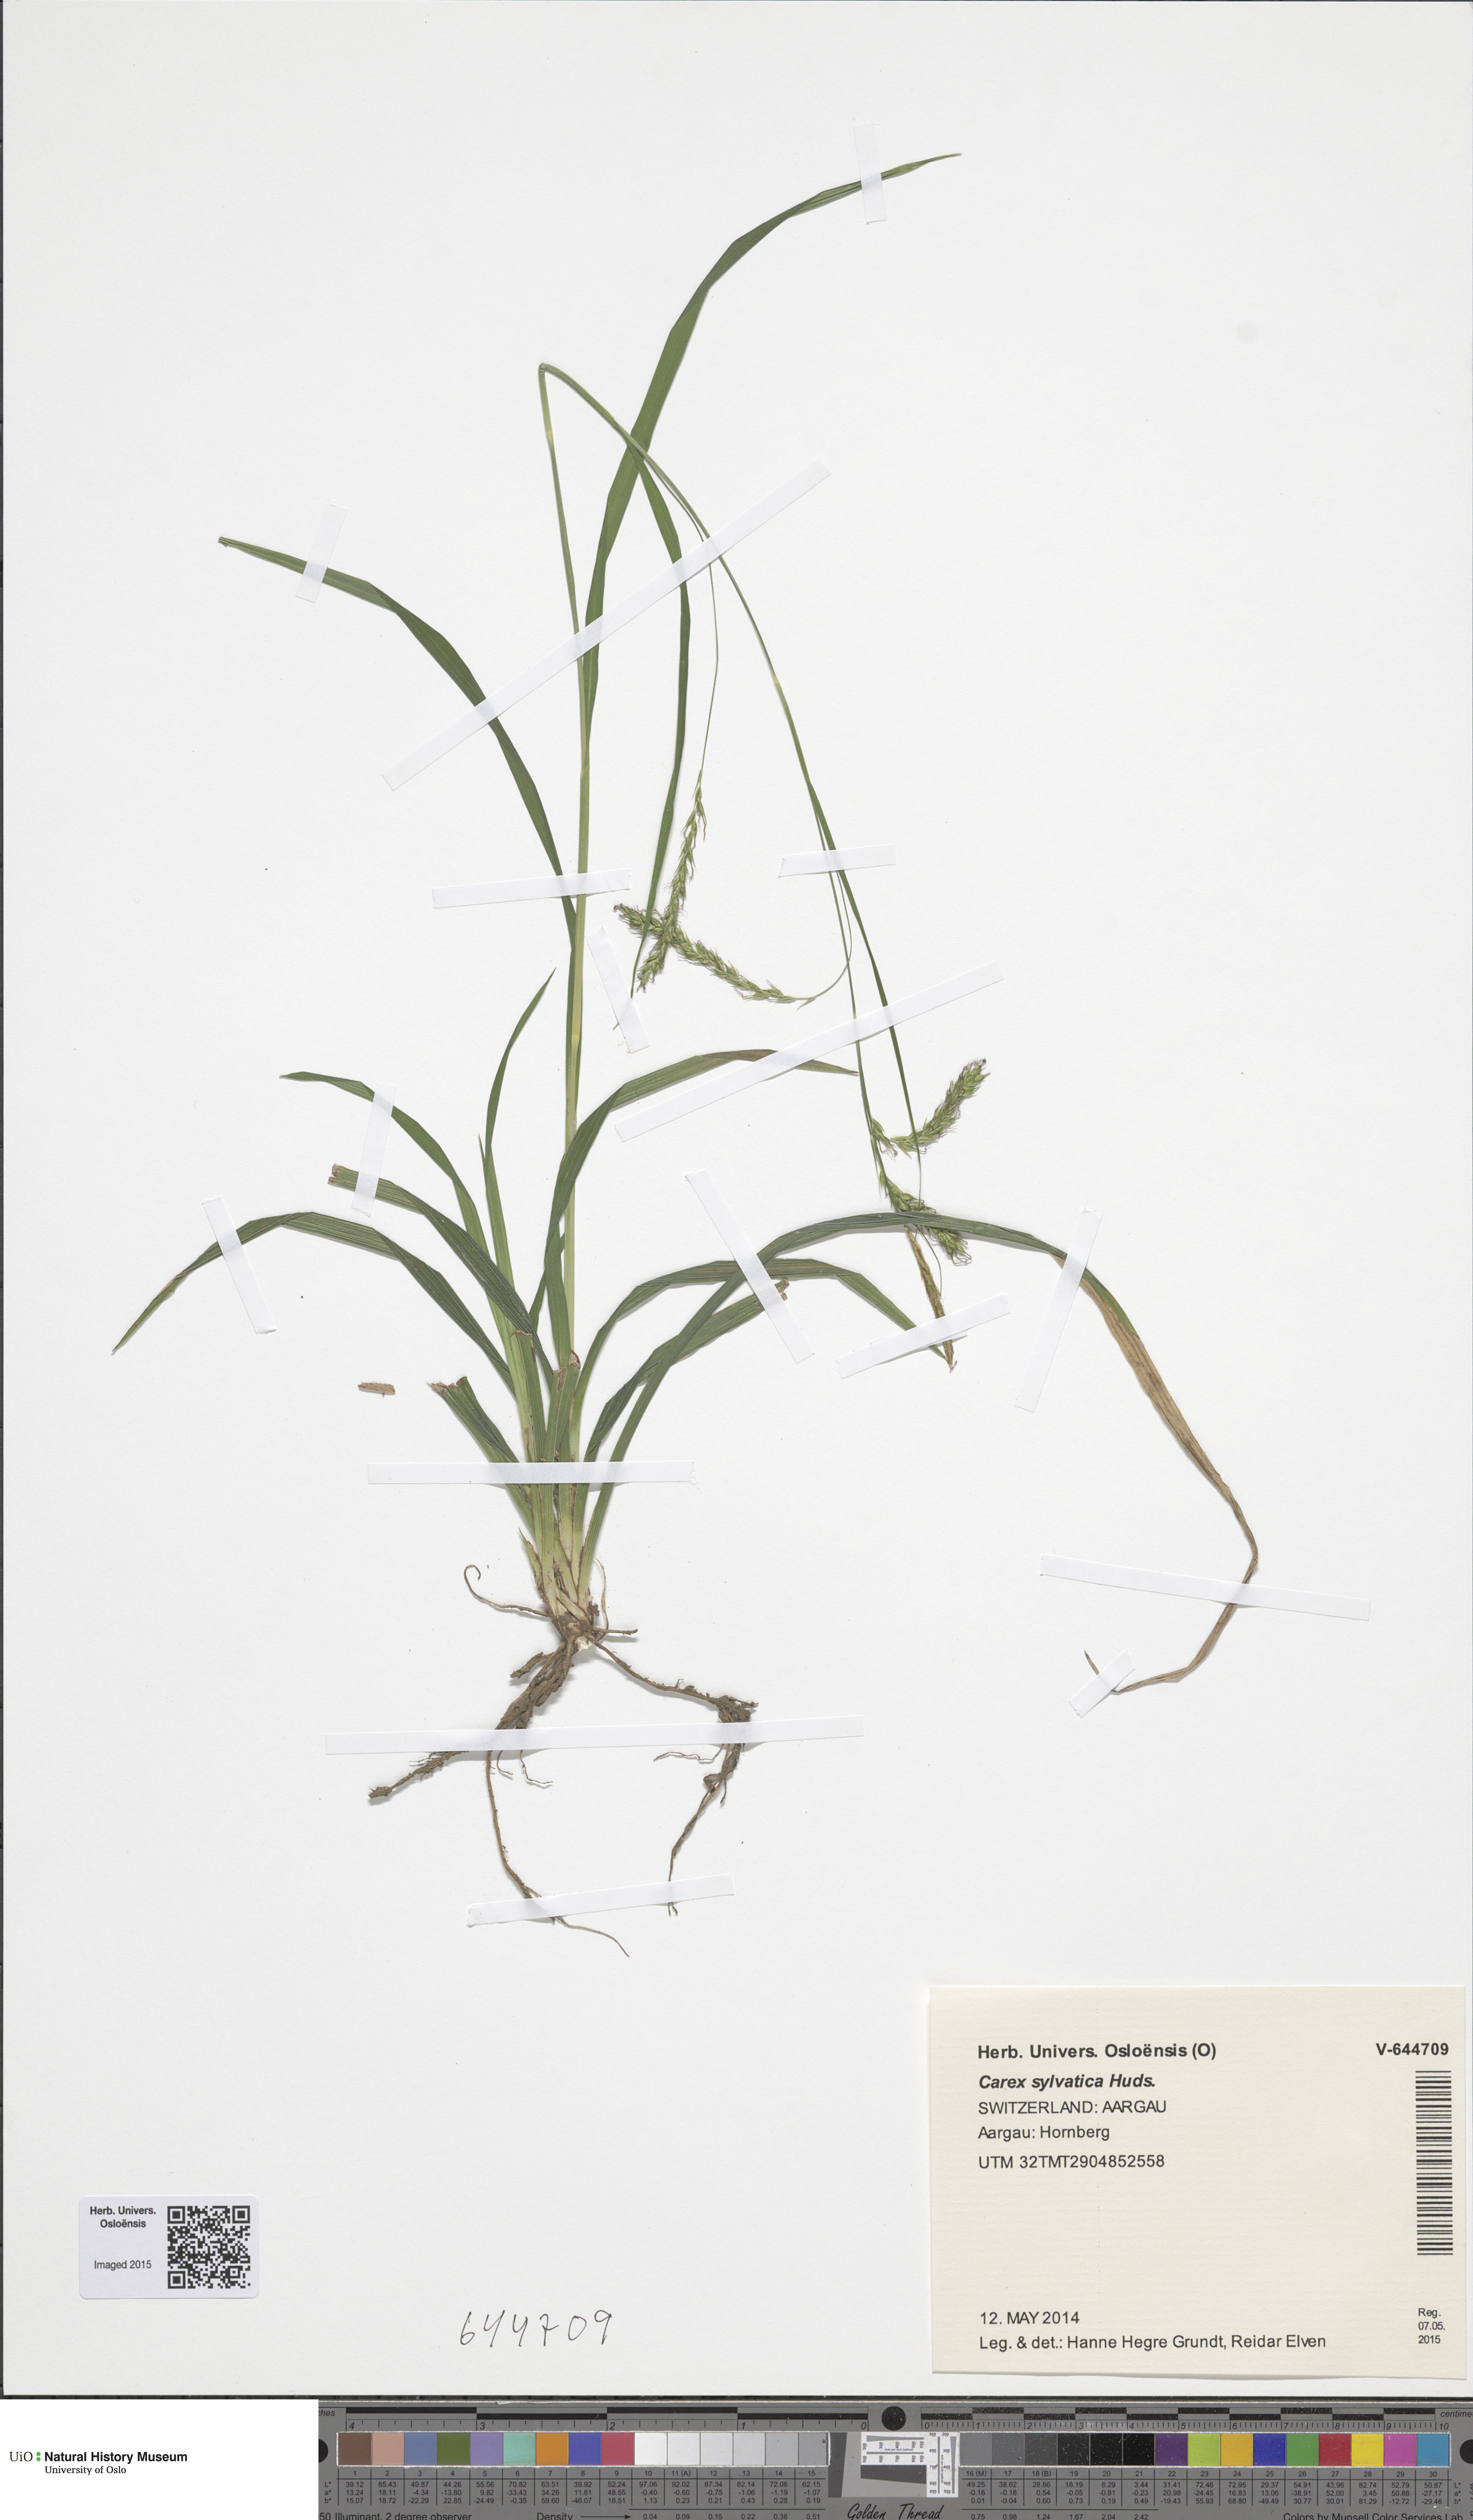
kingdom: Plantae
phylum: Tracheophyta
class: Liliopsida
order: Poales
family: Cyperaceae
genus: Carex
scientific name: Carex sylvatica
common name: Wood-sedge
